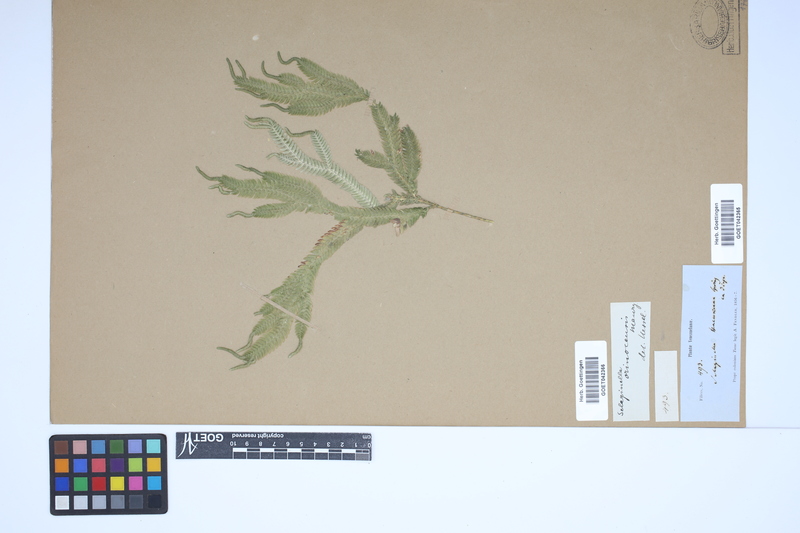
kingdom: Plantae
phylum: Tracheophyta
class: Lycopodiopsida
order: Selaginellales
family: Selaginellaceae
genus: Selaginella
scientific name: Selaginella haenkeana
